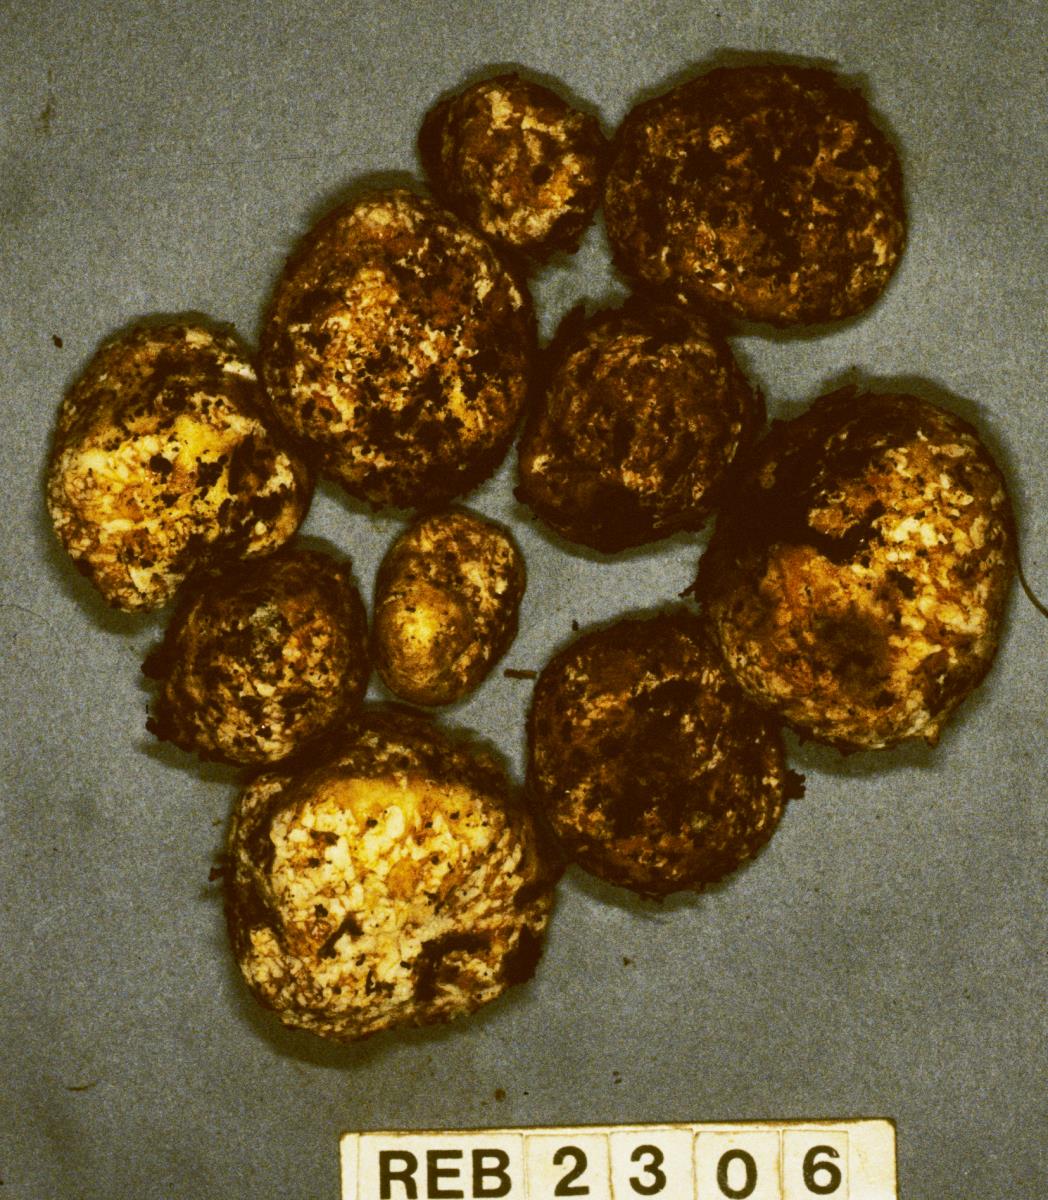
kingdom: Fungi
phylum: Basidiomycota
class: Agaricomycetes
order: Russulales
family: Russulaceae
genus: Zelleromyces
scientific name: Zelleromyces
